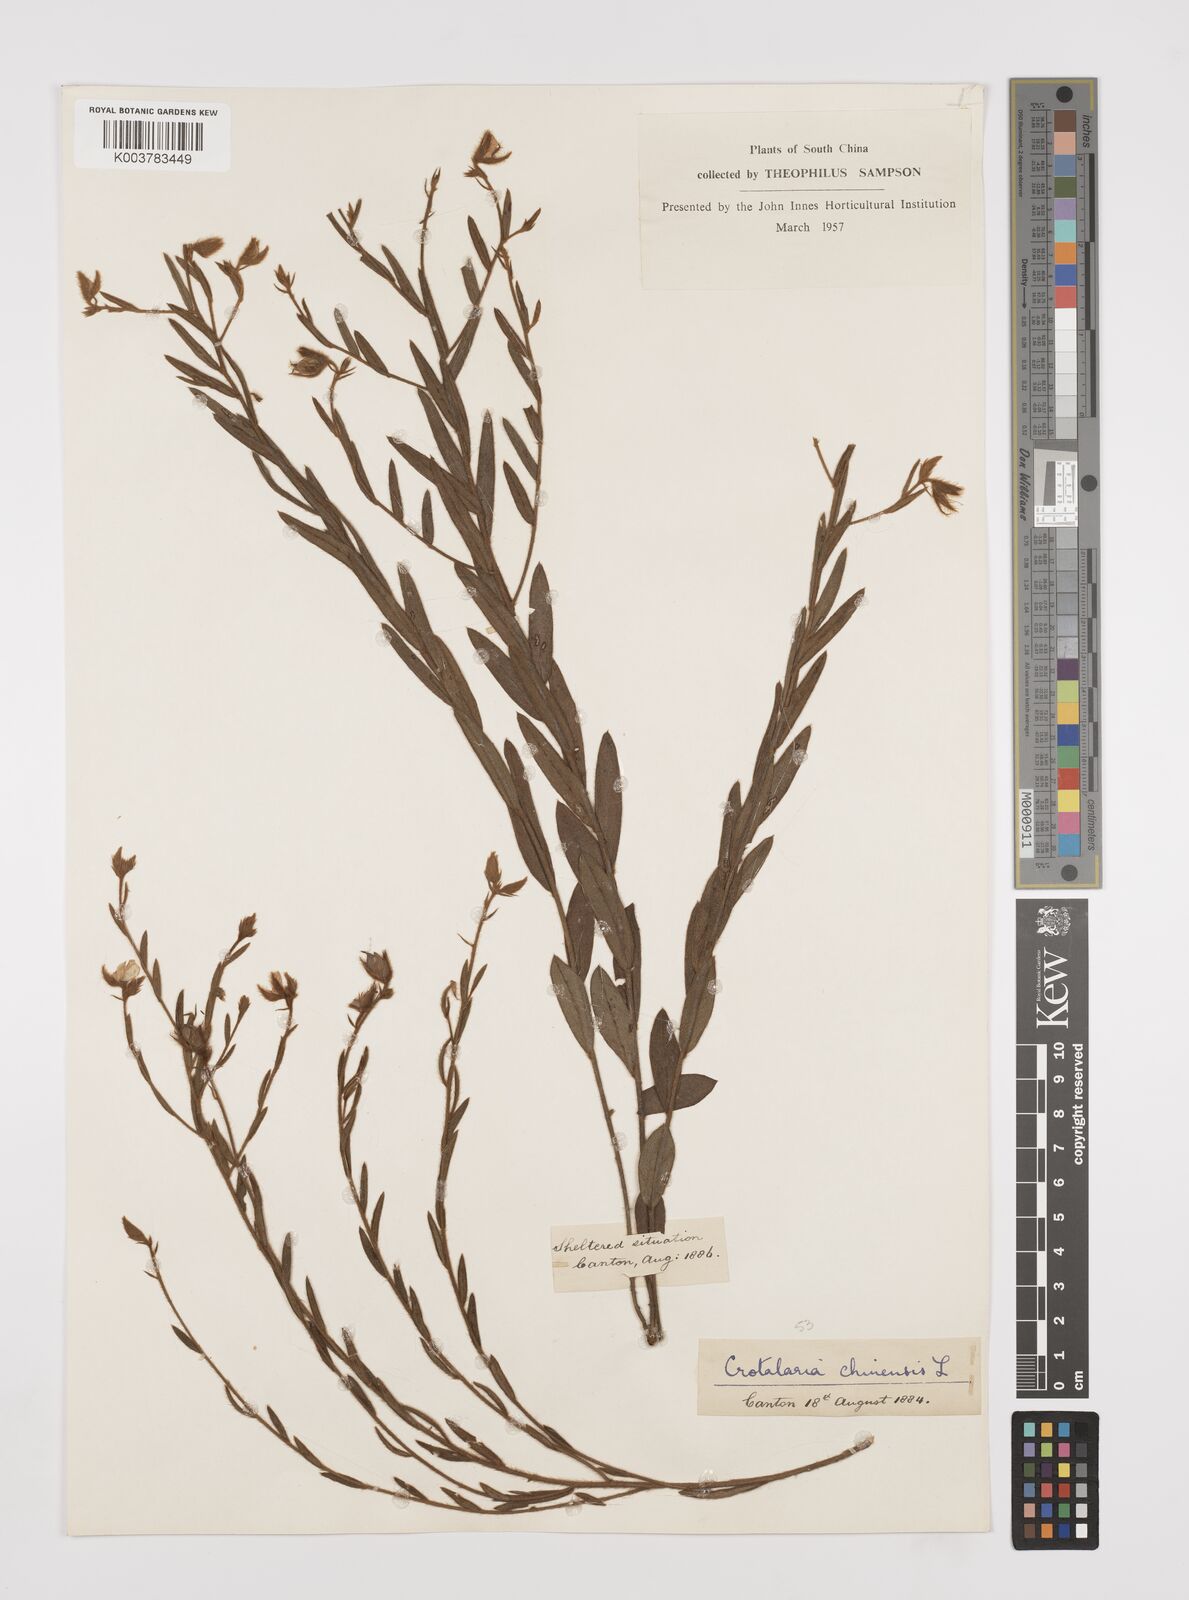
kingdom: Plantae
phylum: Tracheophyta
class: Magnoliopsida
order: Fabales
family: Fabaceae
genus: Crotalaria
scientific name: Crotalaria chinensis
